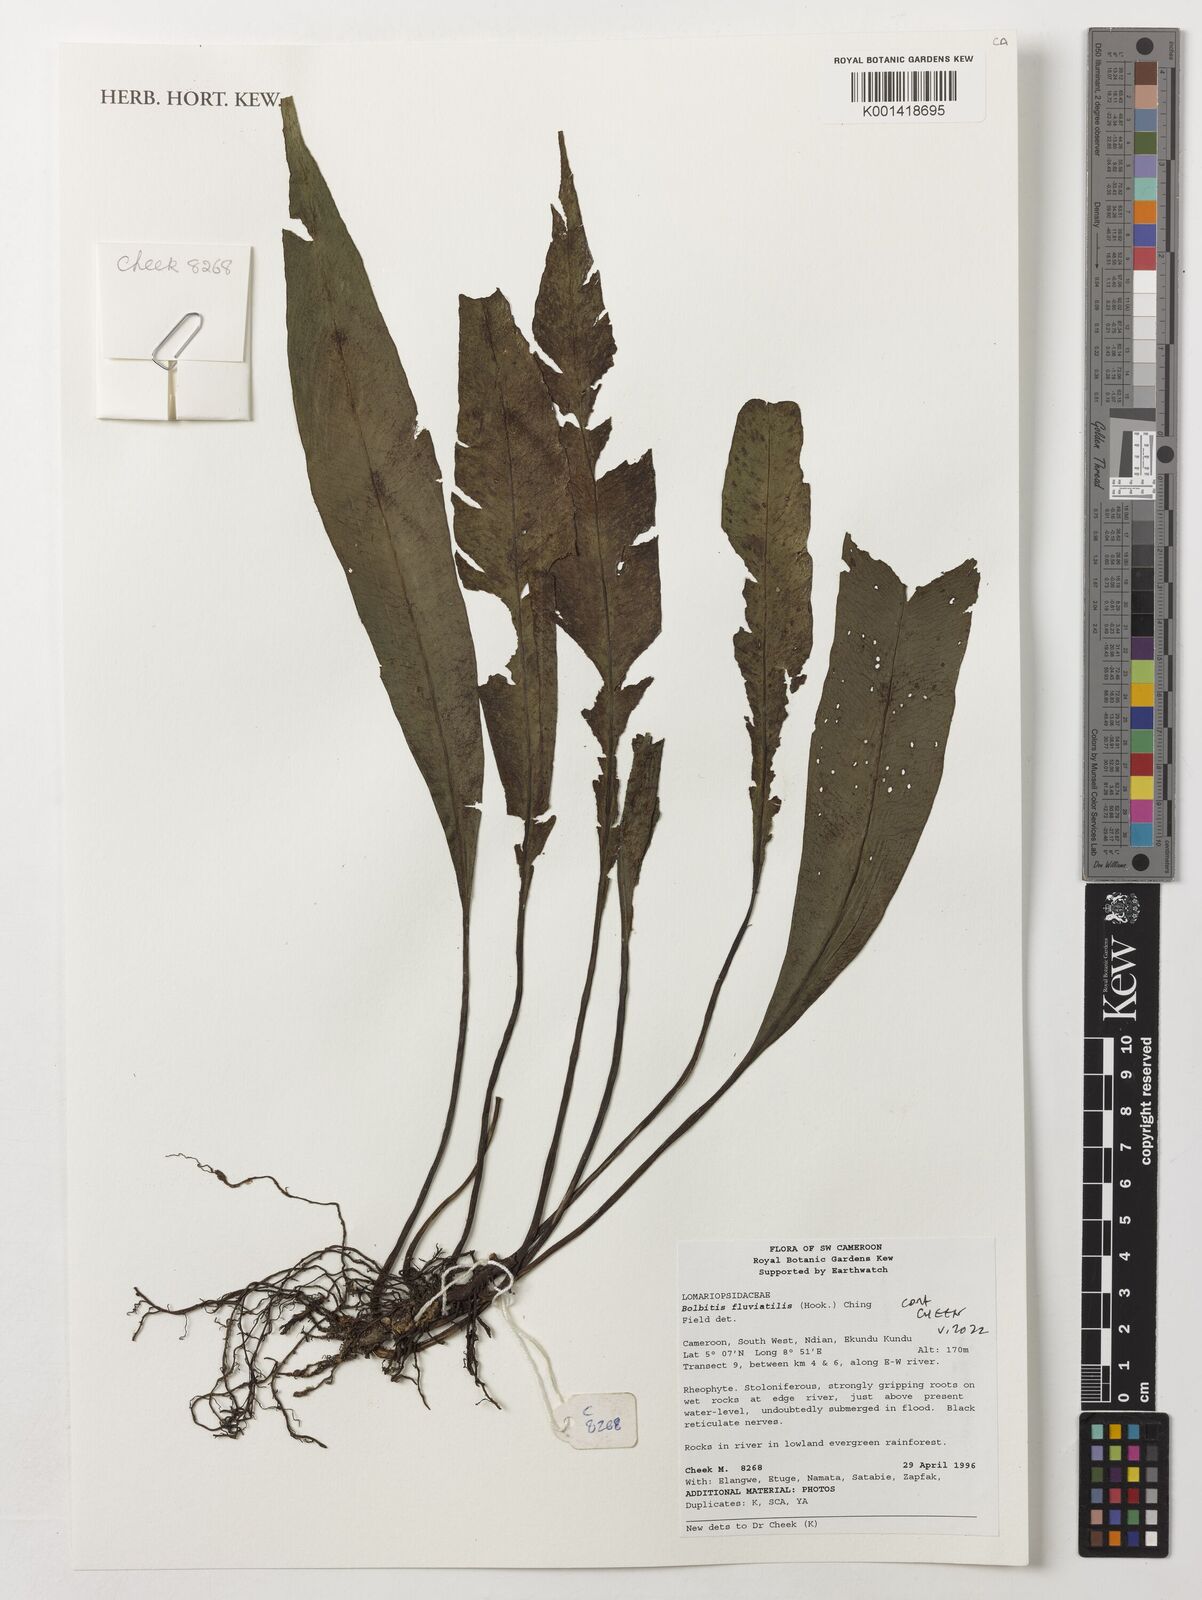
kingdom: Plantae
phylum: Tracheophyta
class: Polypodiopsida
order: Polypodiales
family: Dryopteridaceae
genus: Bolbitis
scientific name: Bolbitis fluviatilis
